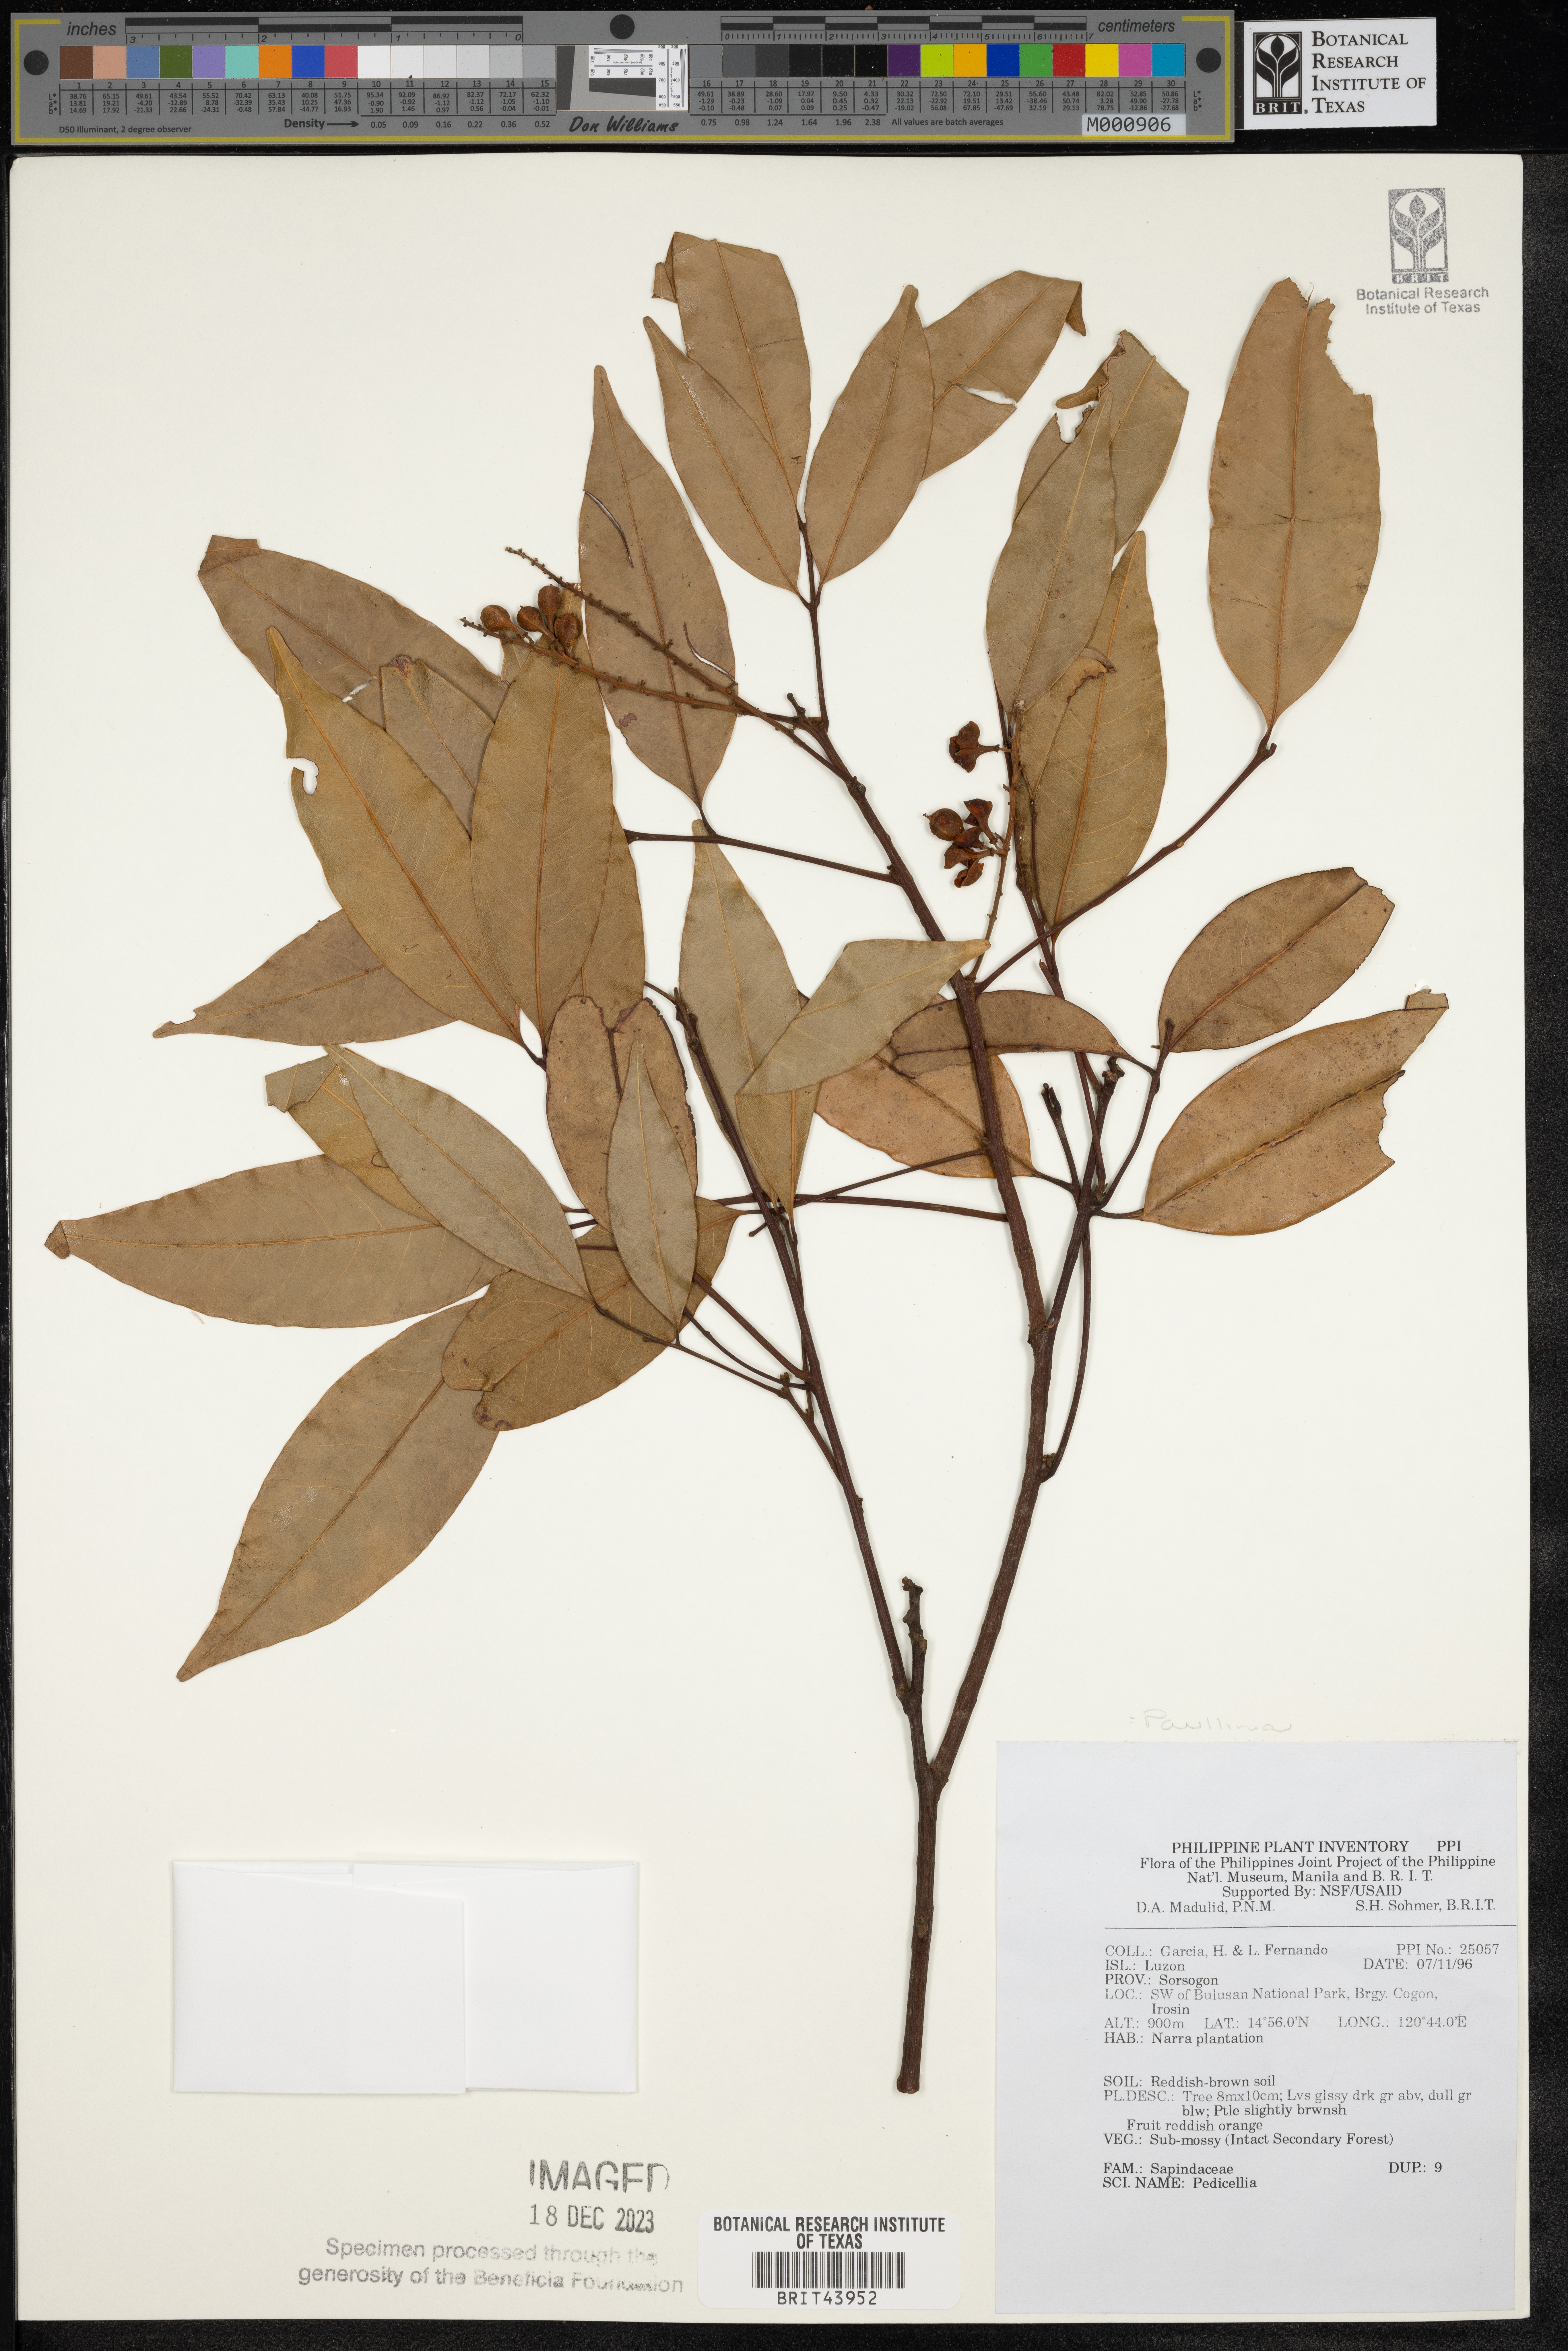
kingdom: Plantae
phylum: Tracheophyta
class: Magnoliopsida
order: Sapindales
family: Sapindaceae
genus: Paullinia
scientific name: Paullinia
